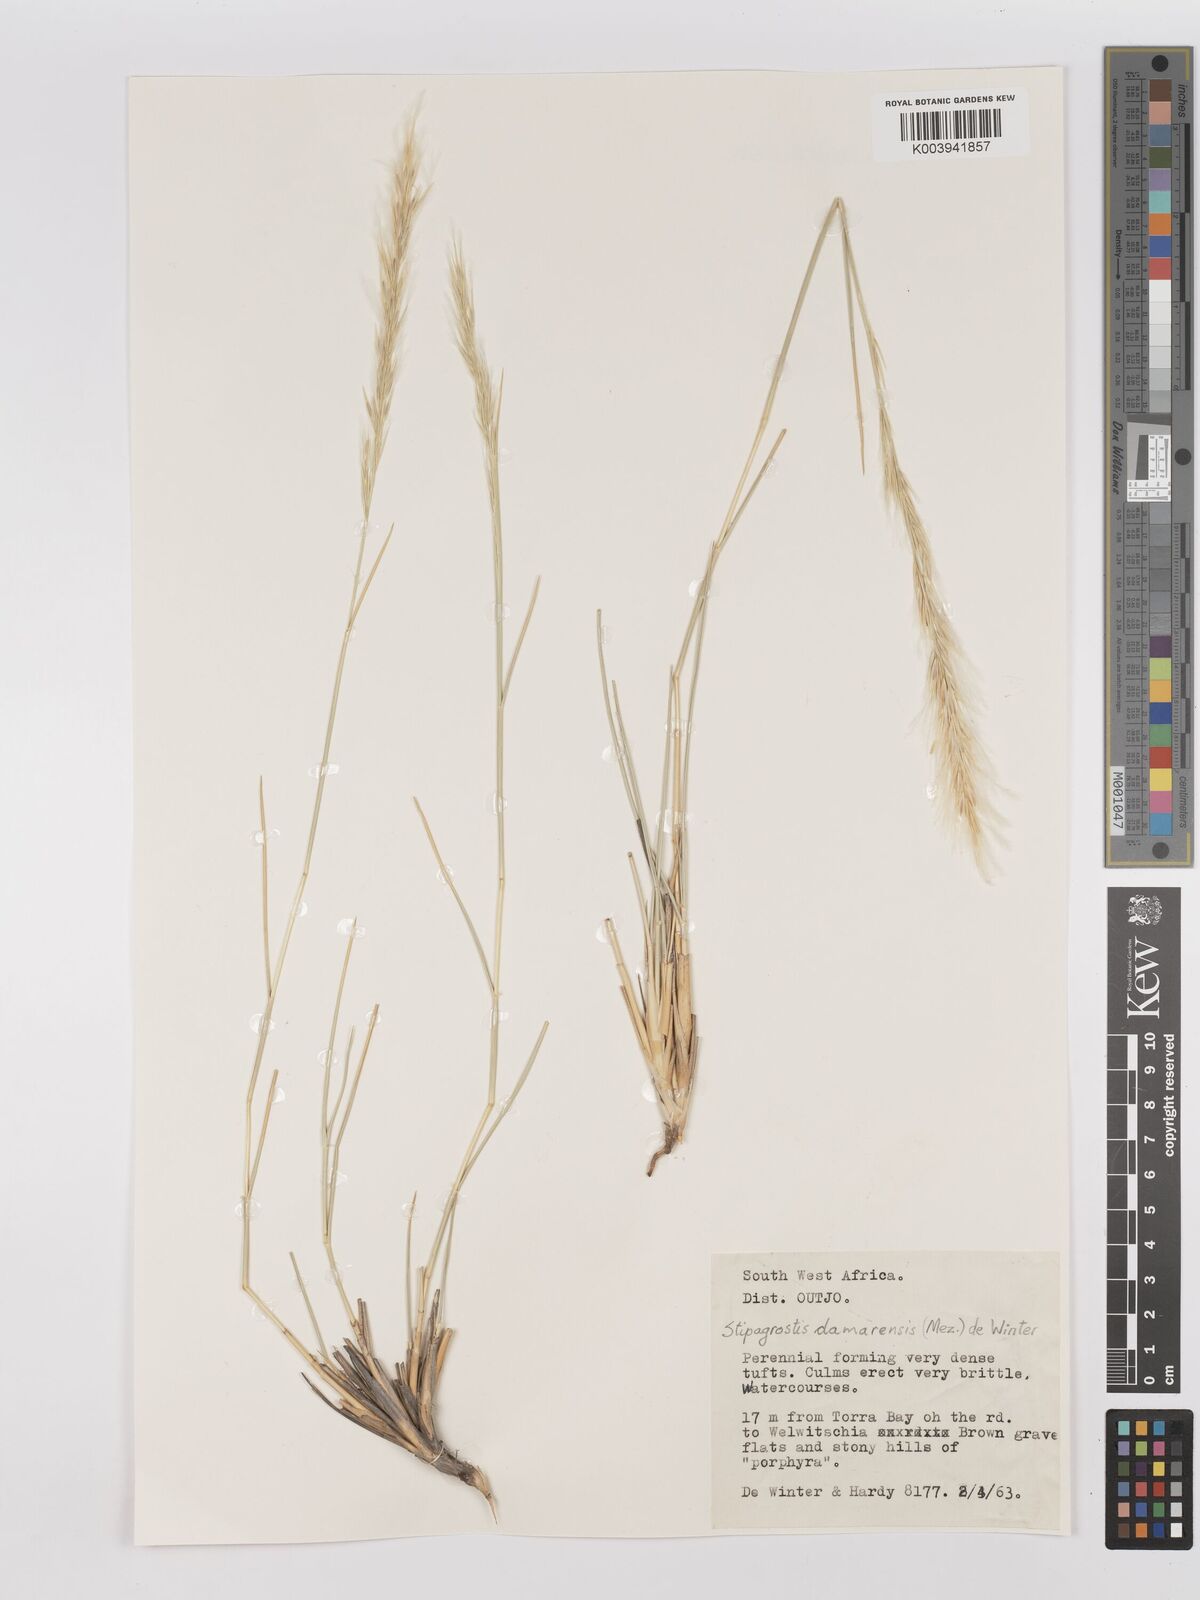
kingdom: Plantae
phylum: Tracheophyta
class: Liliopsida
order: Poales
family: Poaceae
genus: Stipagrostis
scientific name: Stipagrostis damarensis
